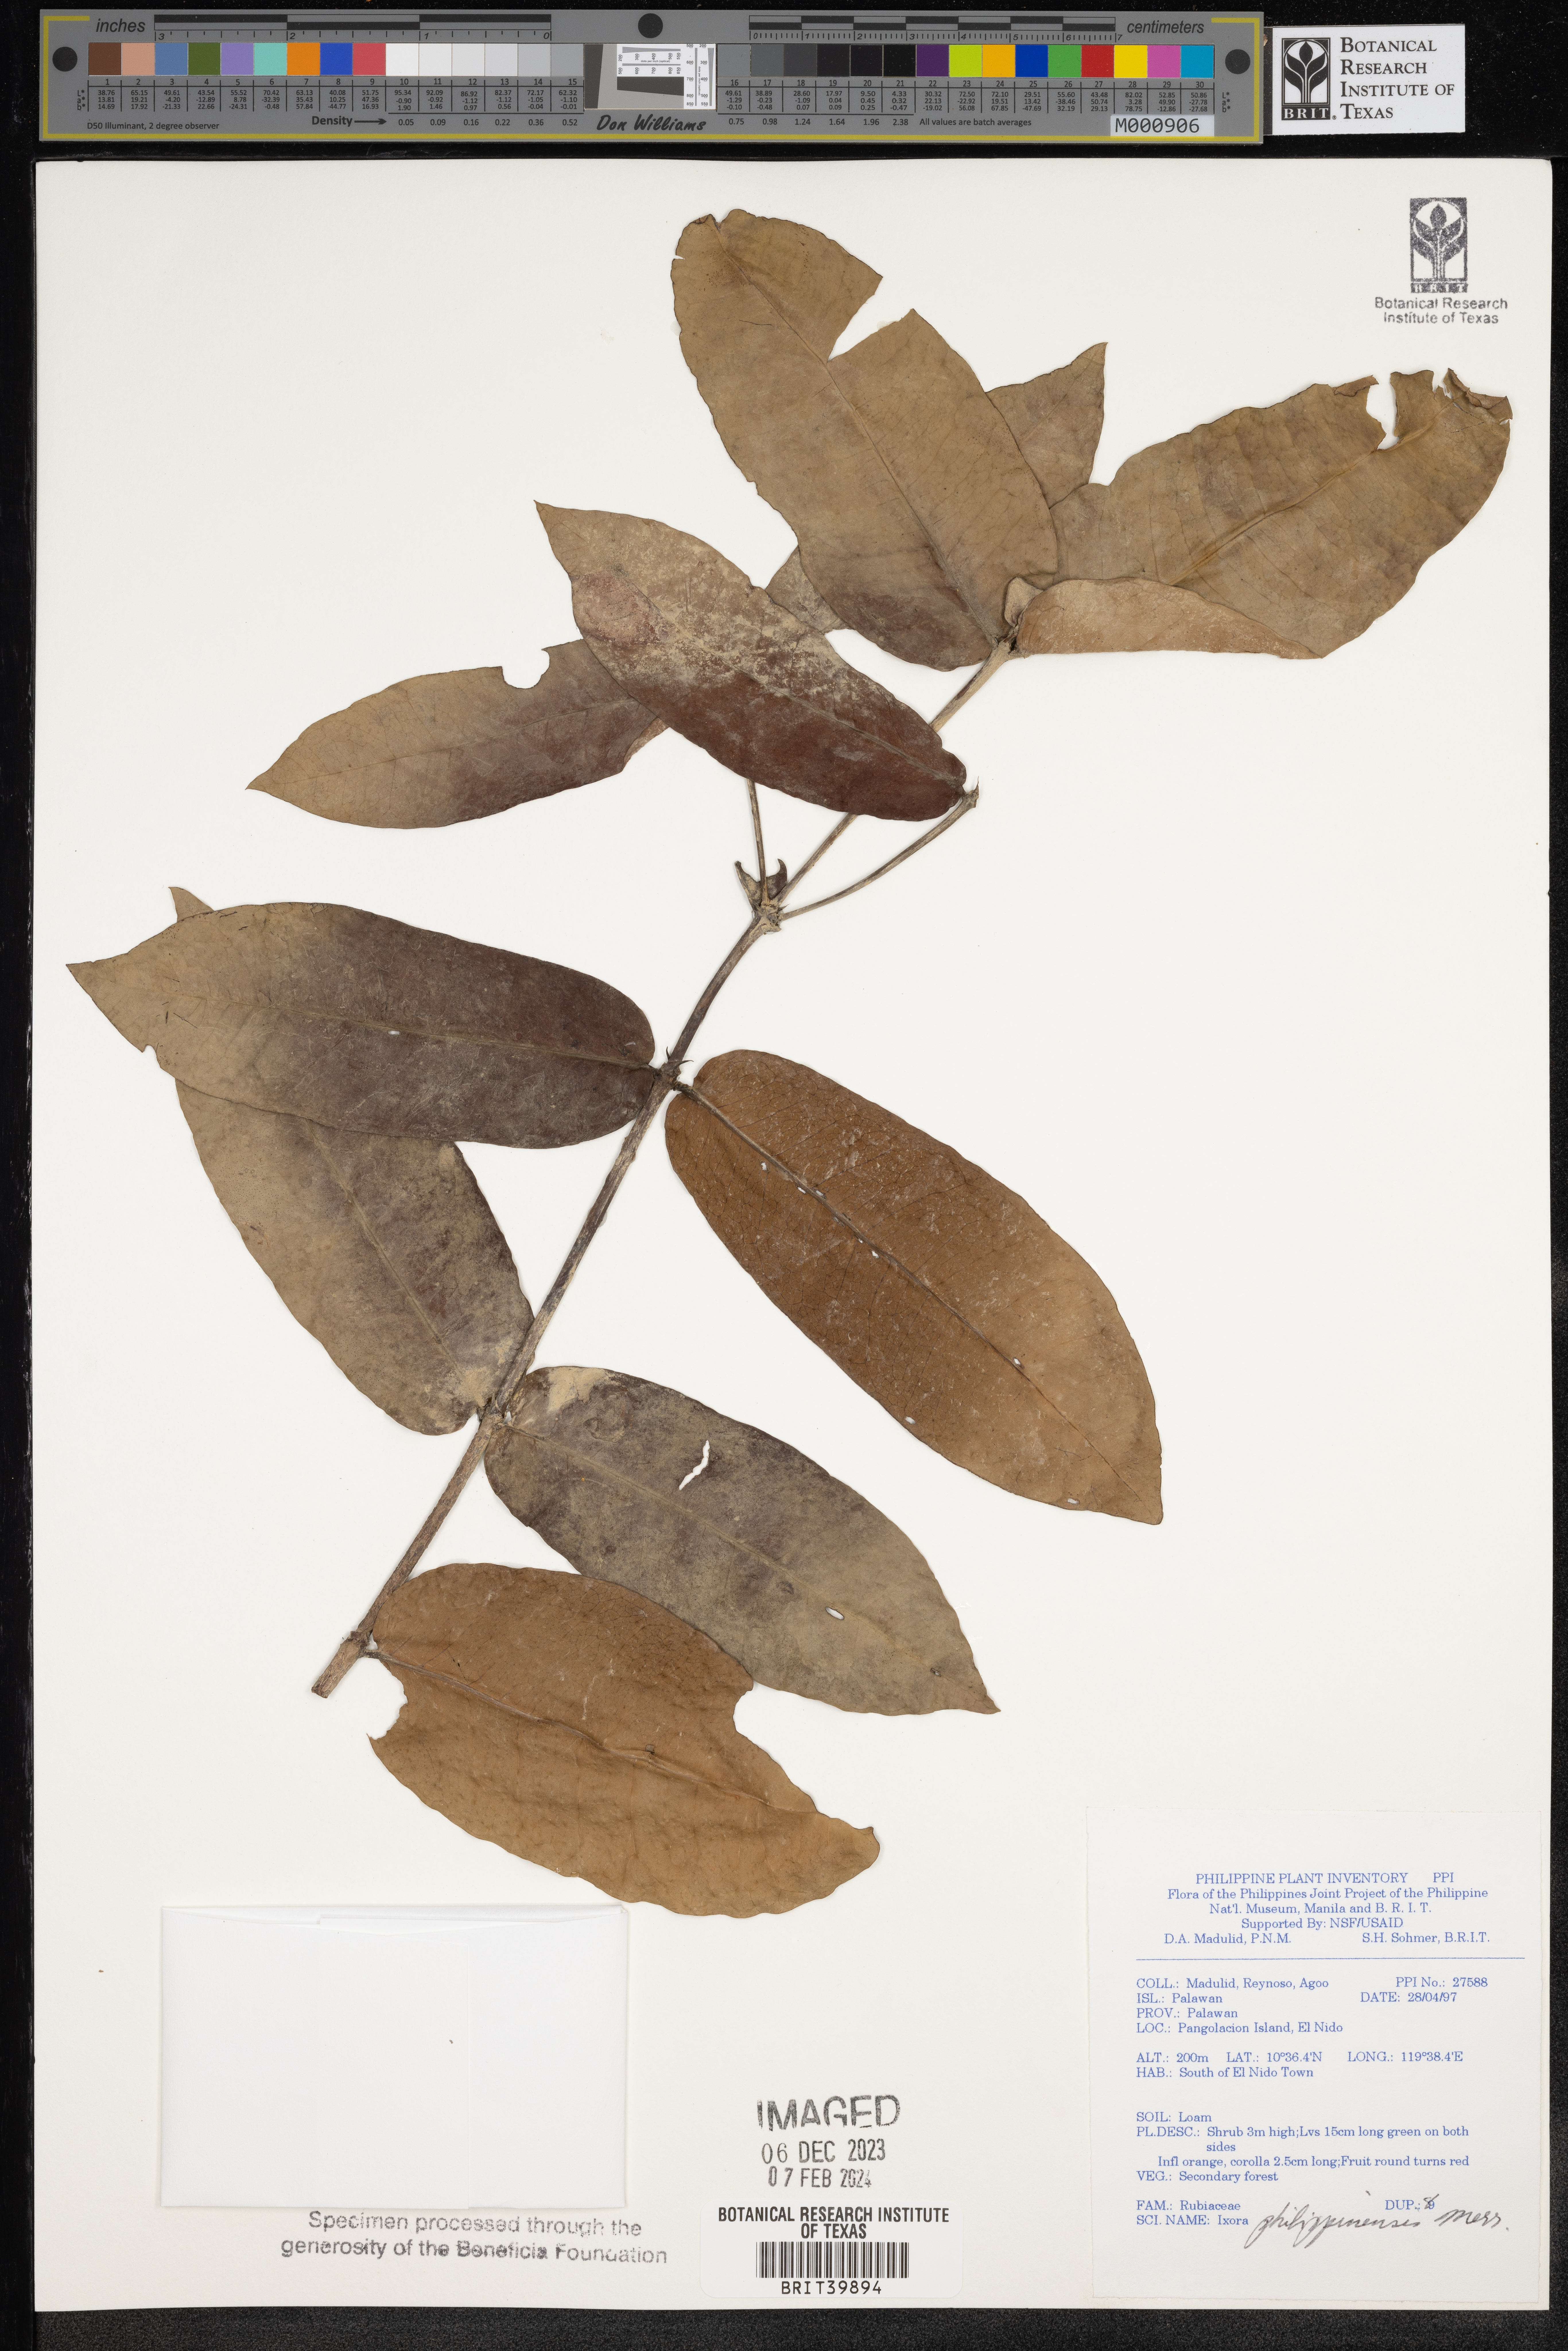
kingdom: Plantae
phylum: Tracheophyta
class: Magnoliopsida
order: Gentianales
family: Rubiaceae
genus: Ixora
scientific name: Ixora philippinensis
